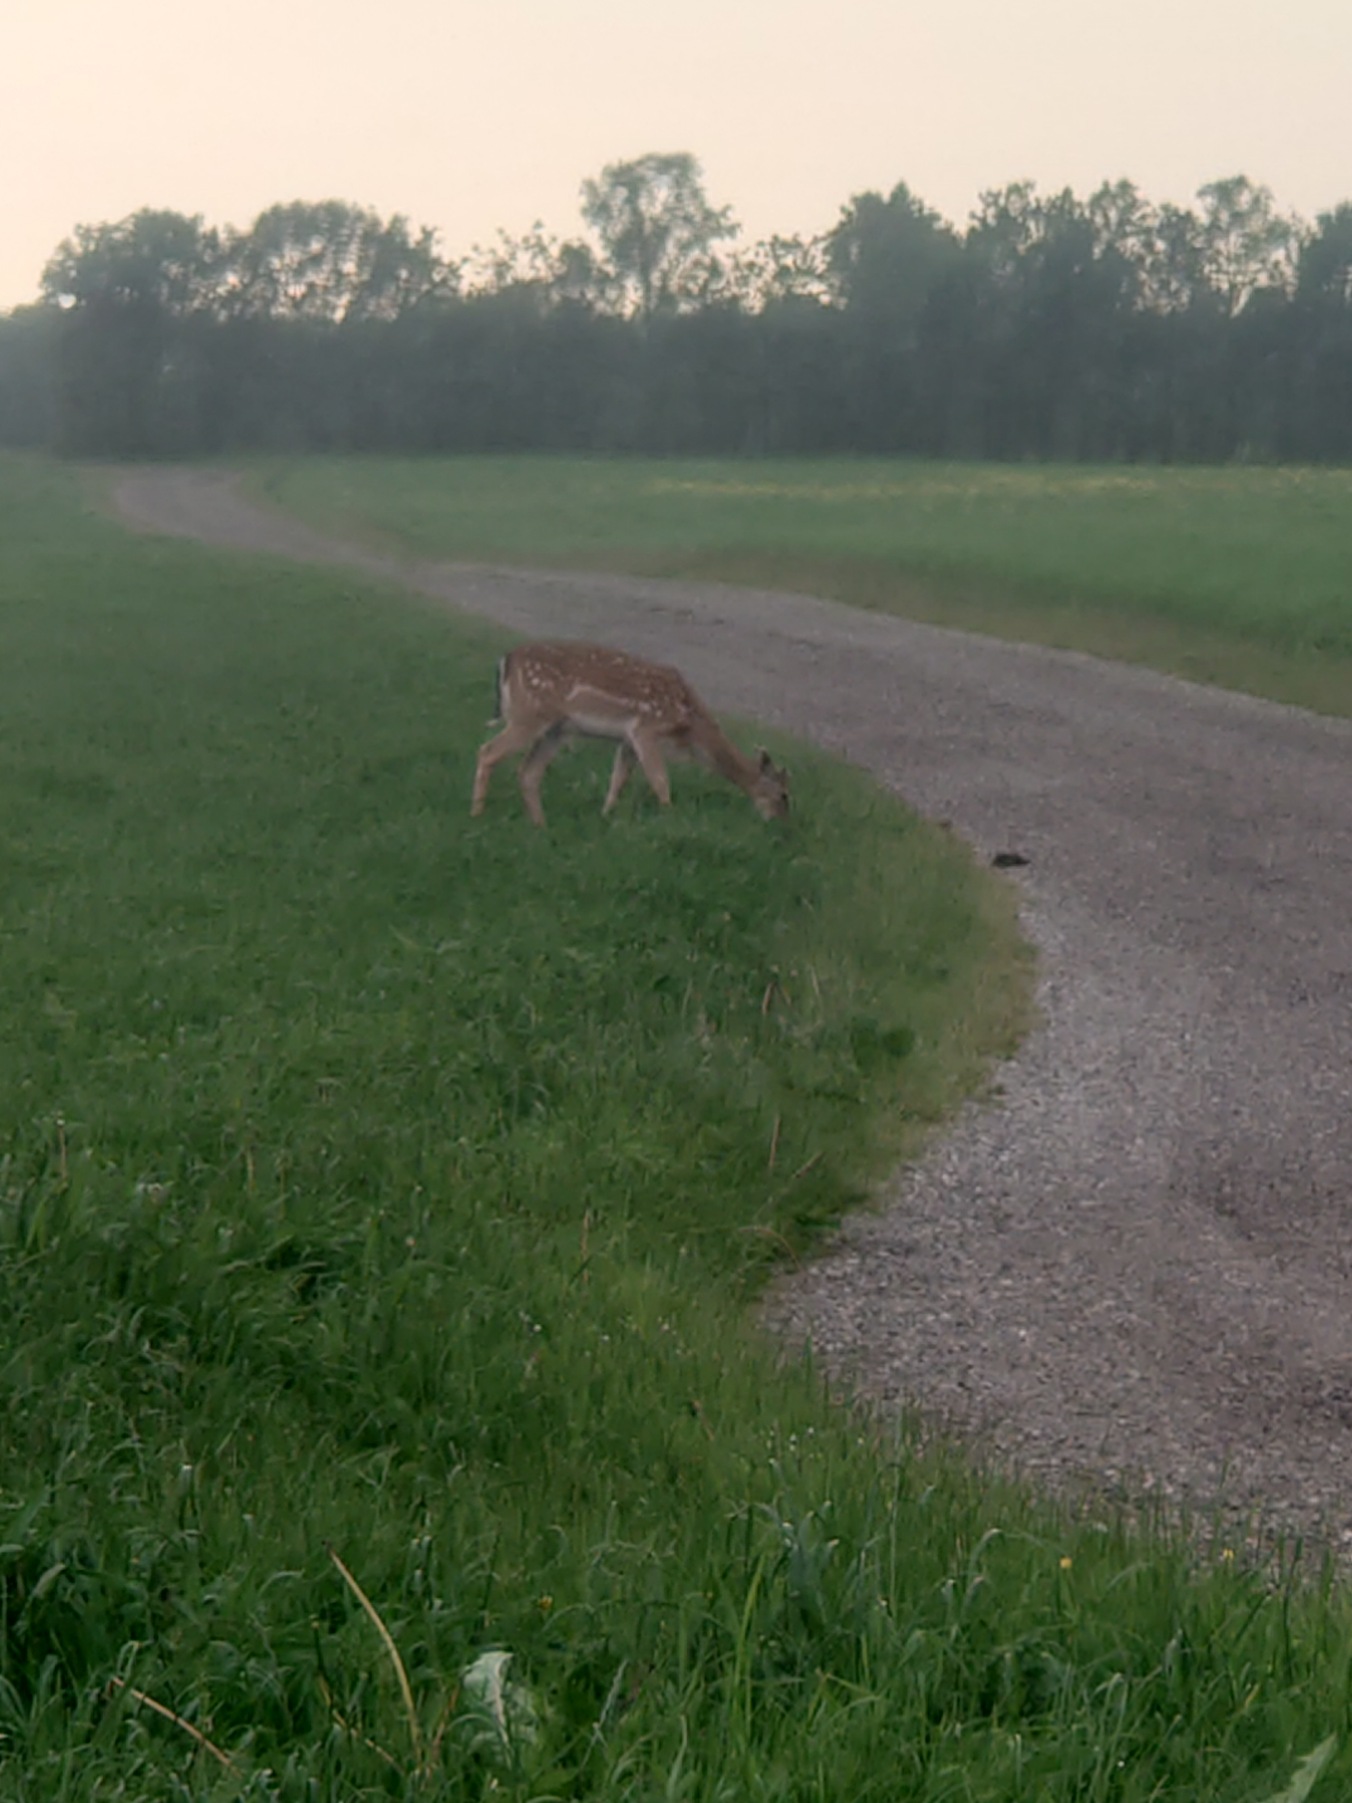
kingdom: Animalia
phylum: Chordata
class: Mammalia
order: Artiodactyla
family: Cervidae
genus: Dama
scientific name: Dama dama
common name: Dådyr
